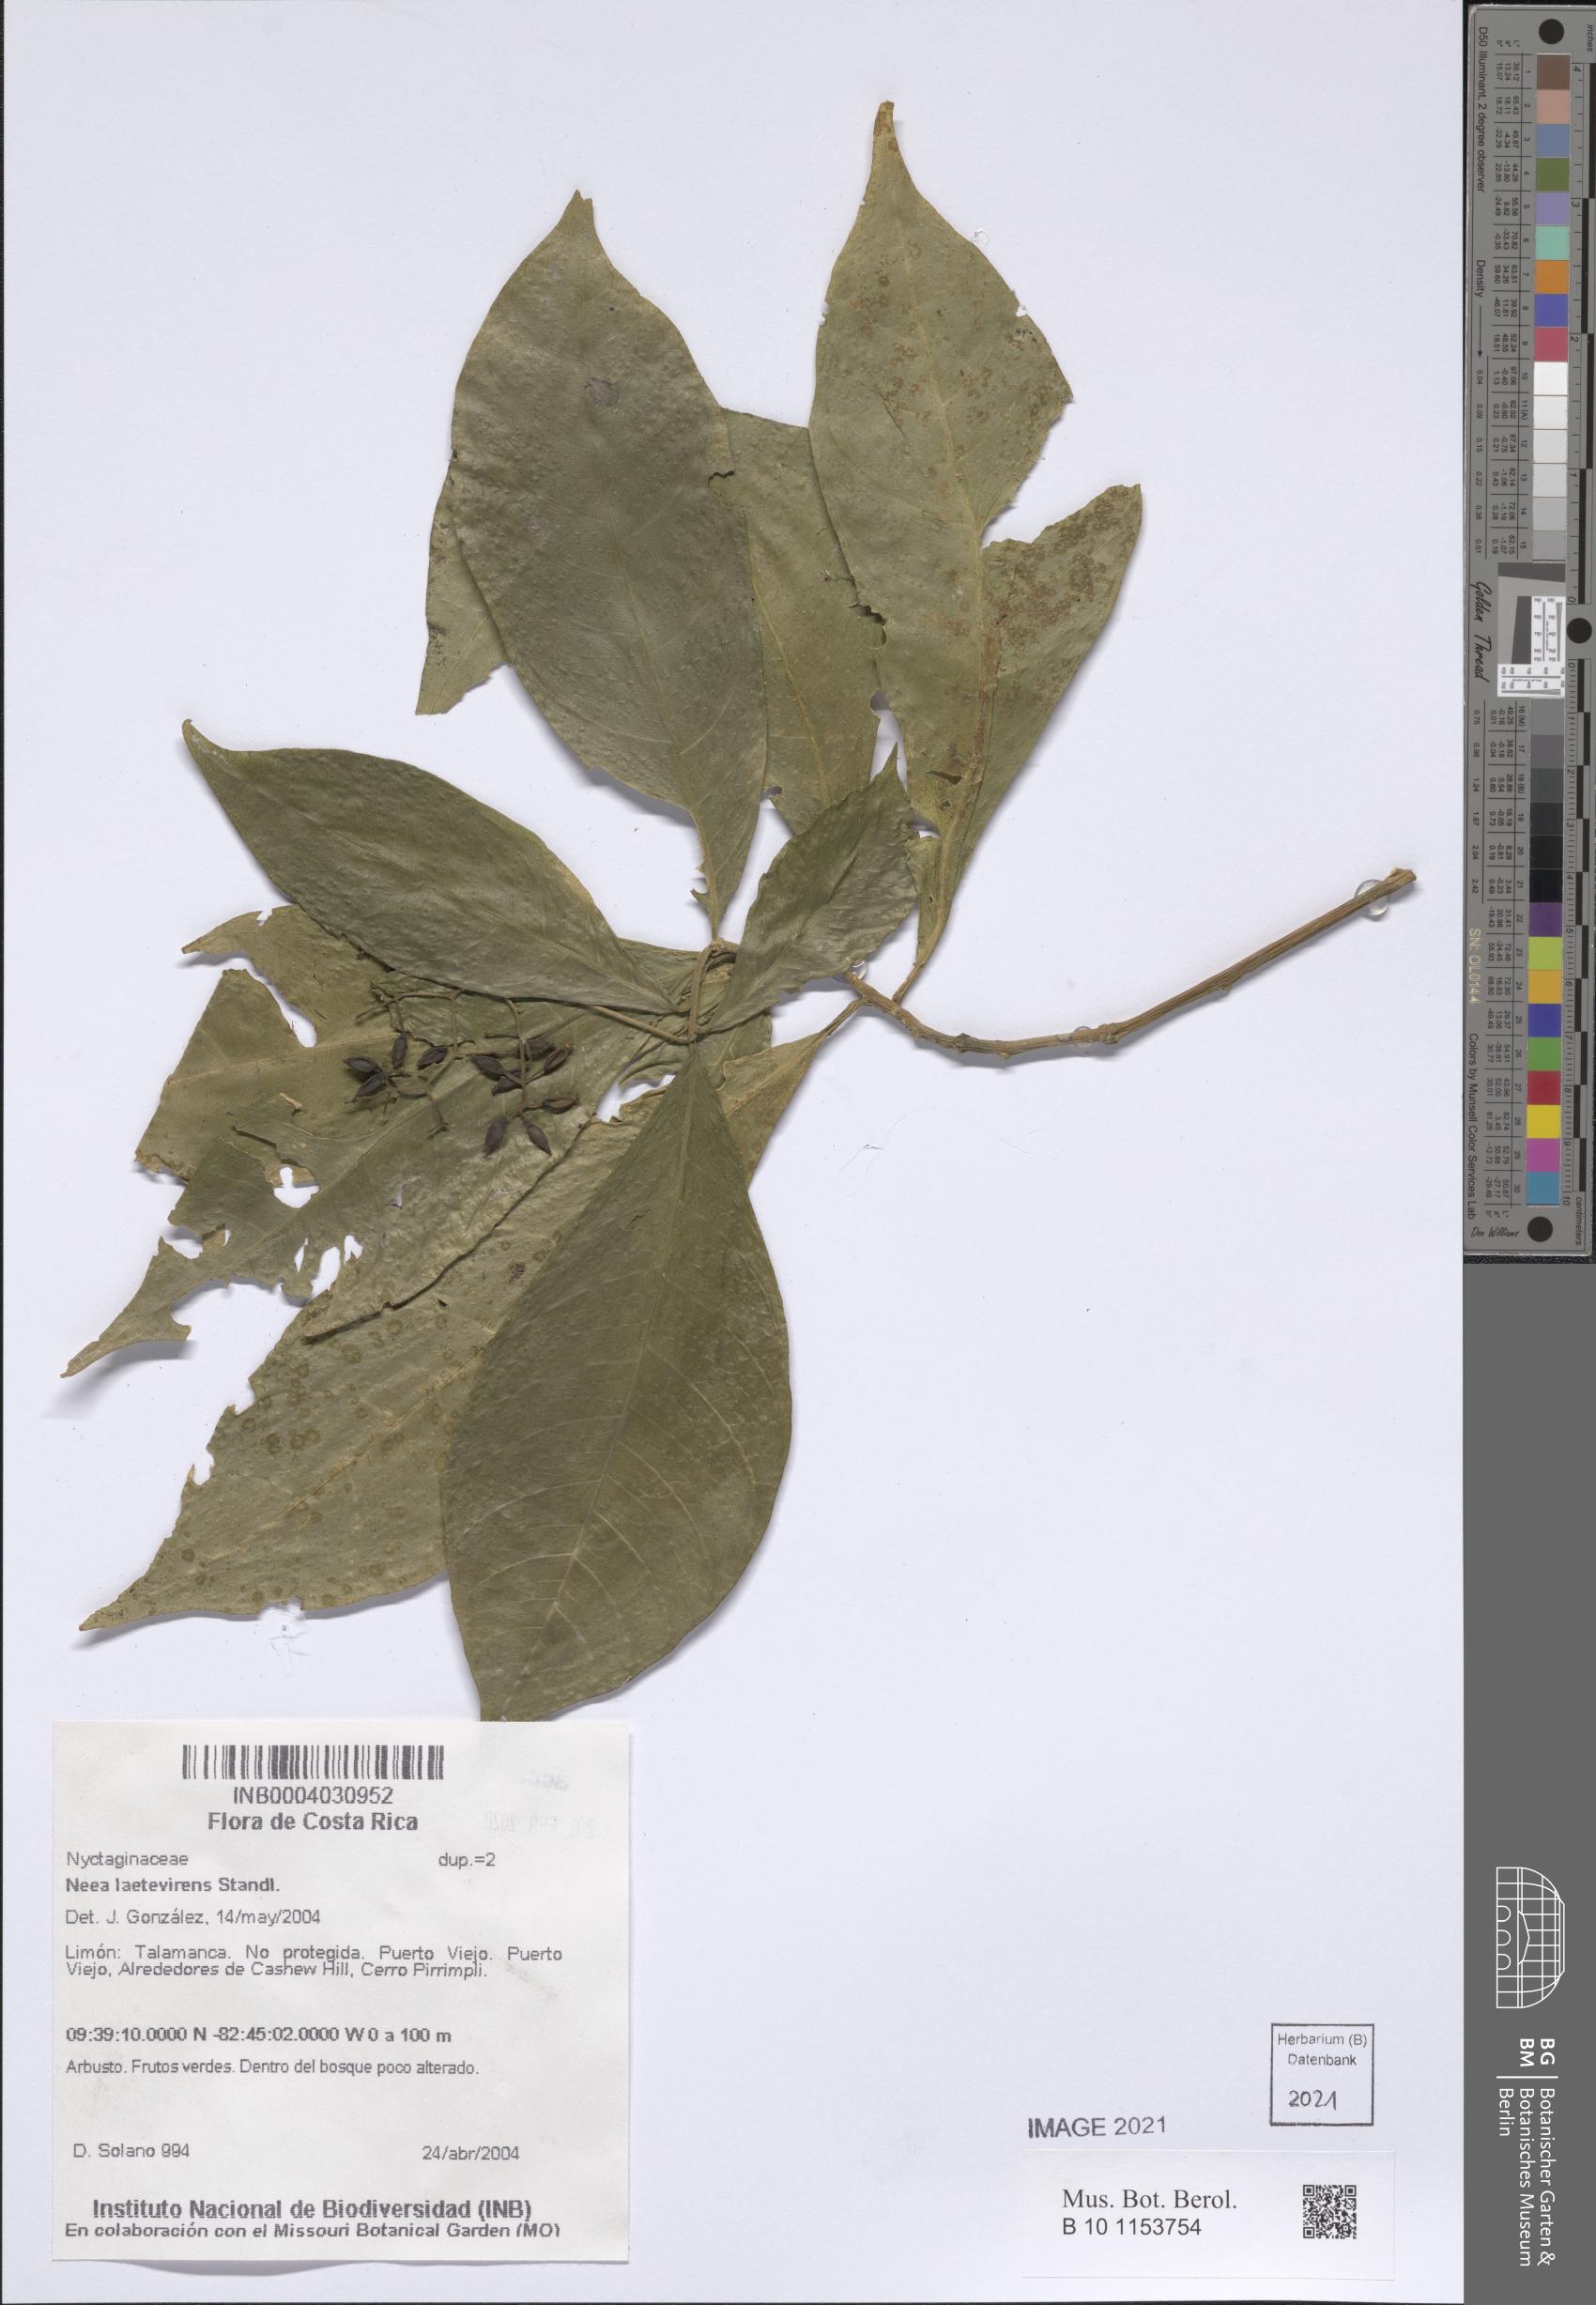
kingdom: Plantae
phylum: Tracheophyta
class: Magnoliopsida
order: Caryophyllales
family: Nyctaginaceae
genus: Neea
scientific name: Neea psychotrioides
